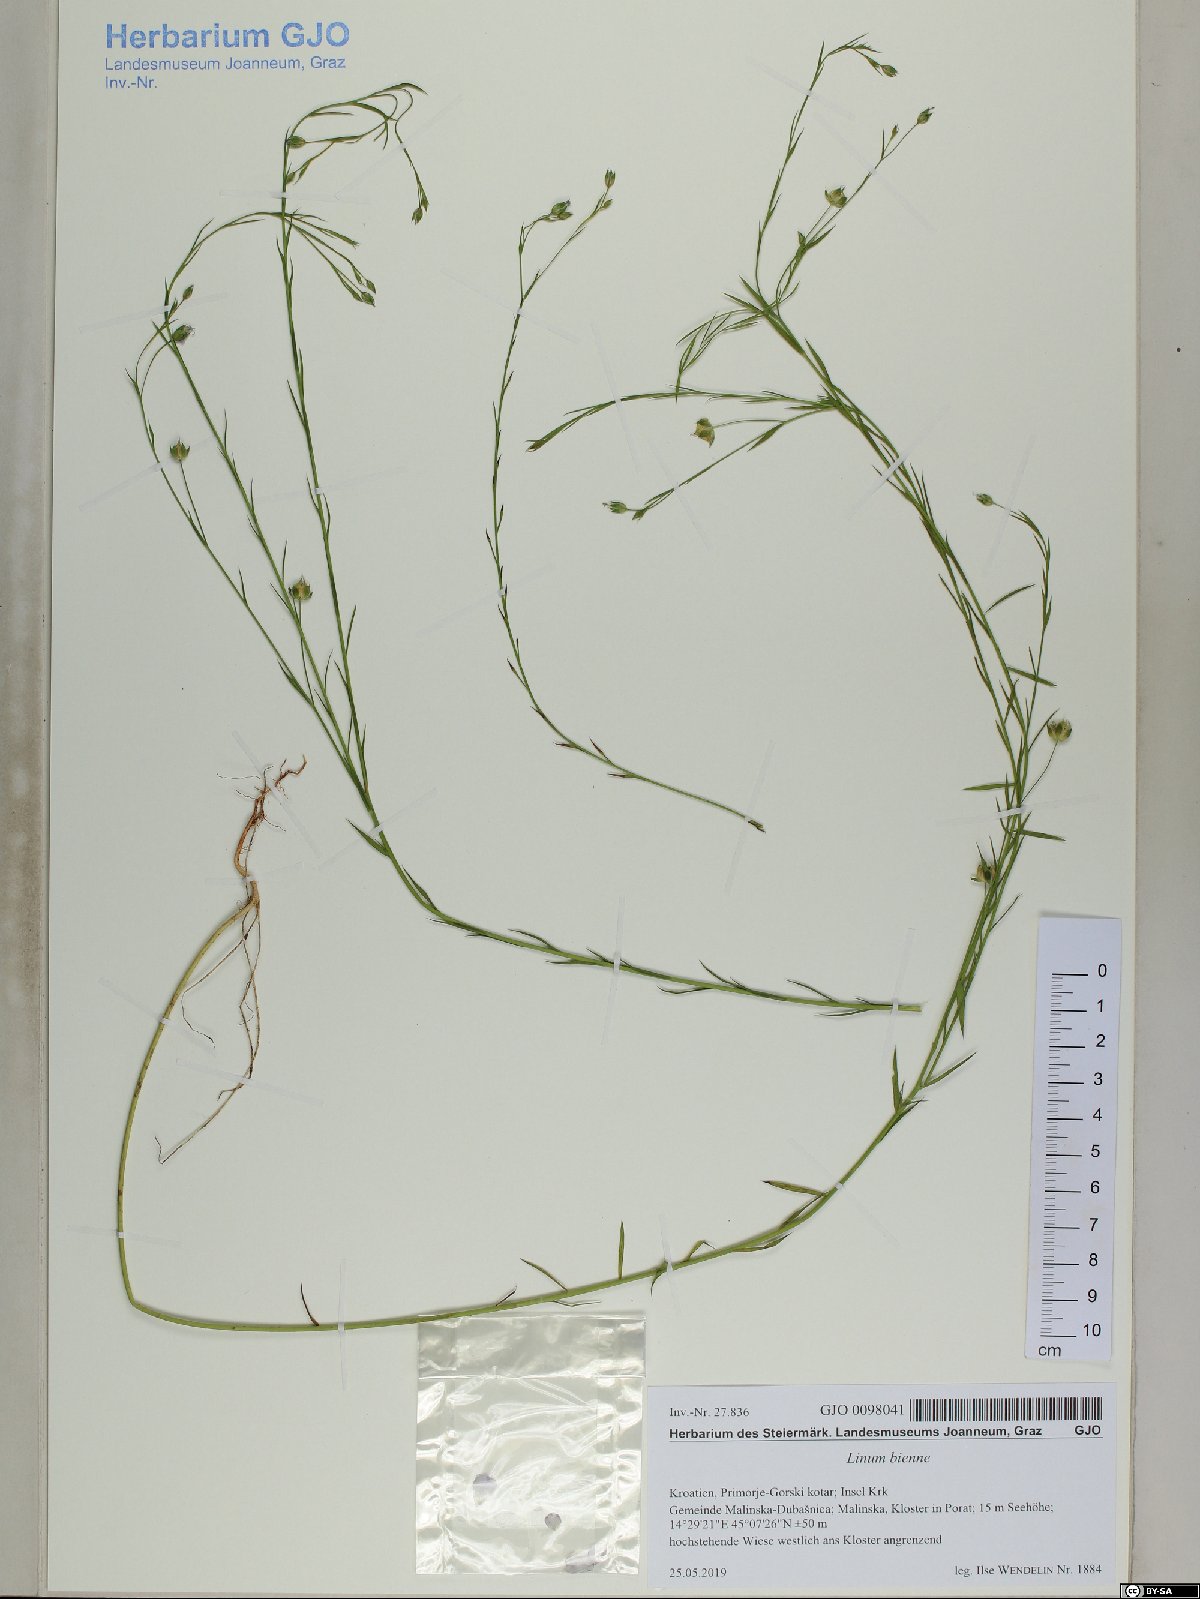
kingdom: Plantae
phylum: Tracheophyta
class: Magnoliopsida
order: Malpighiales
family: Linaceae
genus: Linum
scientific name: Linum bienne
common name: Pale flax
